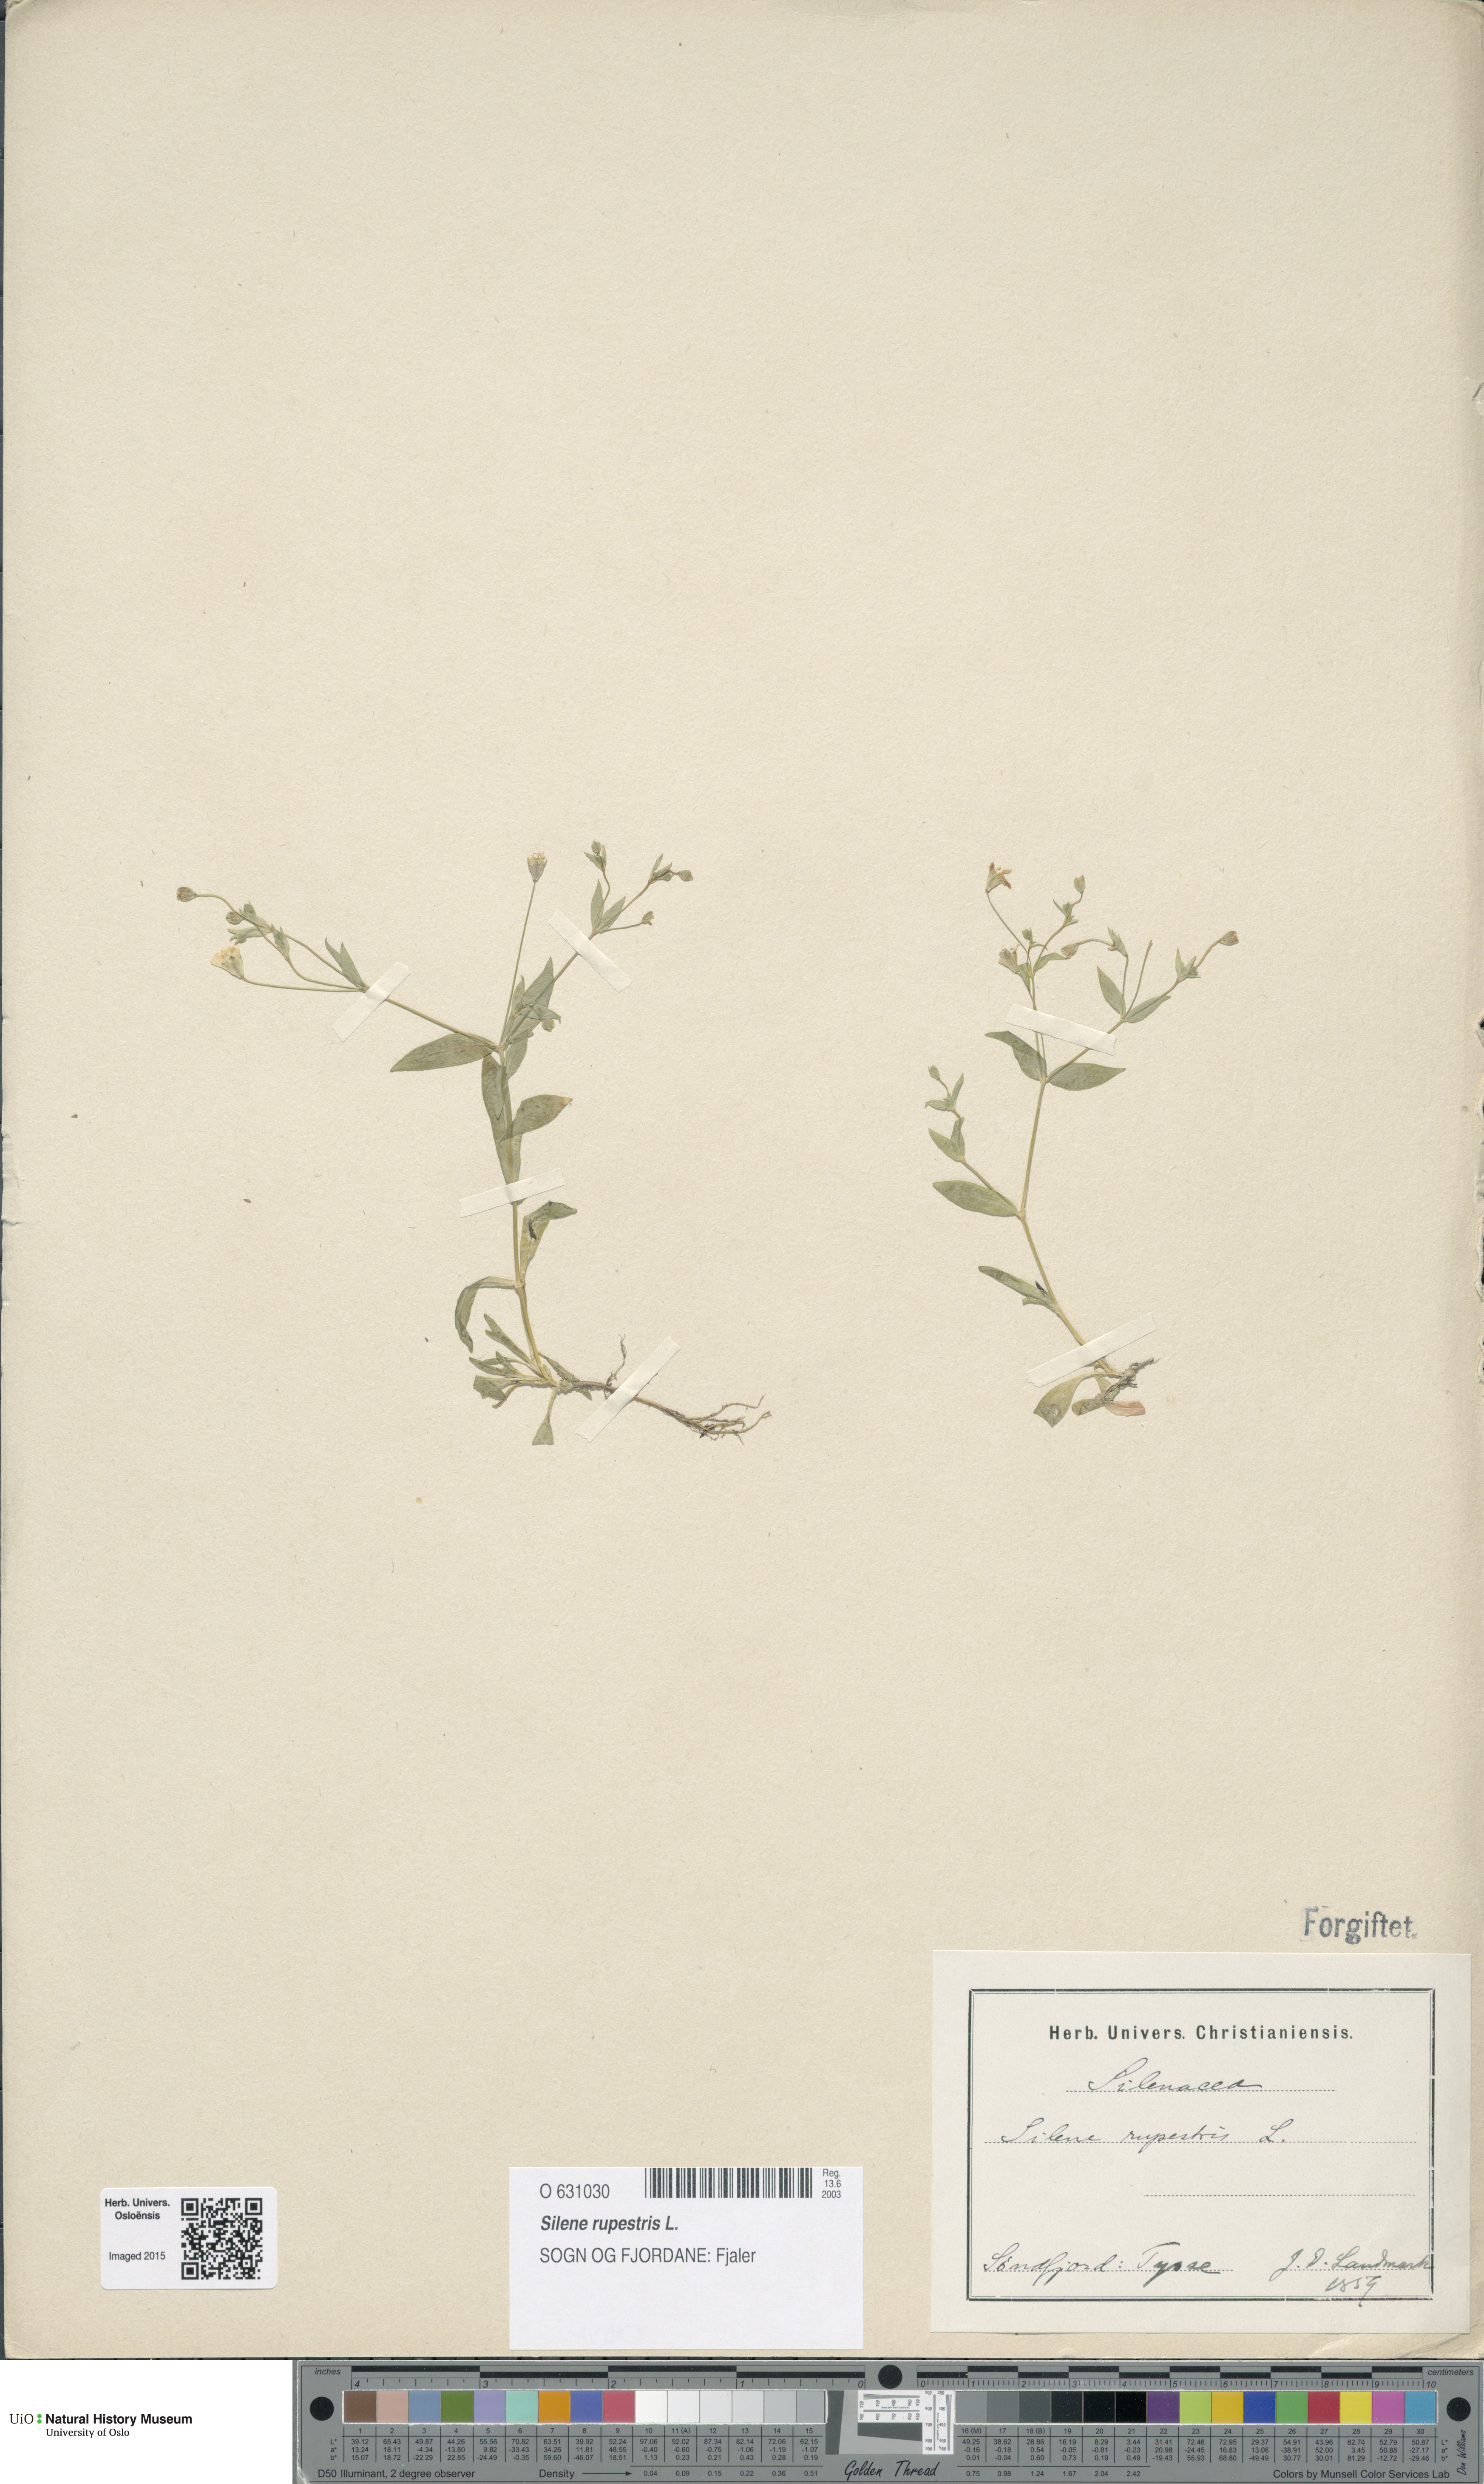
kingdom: Plantae
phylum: Tracheophyta
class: Magnoliopsida
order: Caryophyllales
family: Caryophyllaceae
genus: Atocion
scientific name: Atocion rupestre
